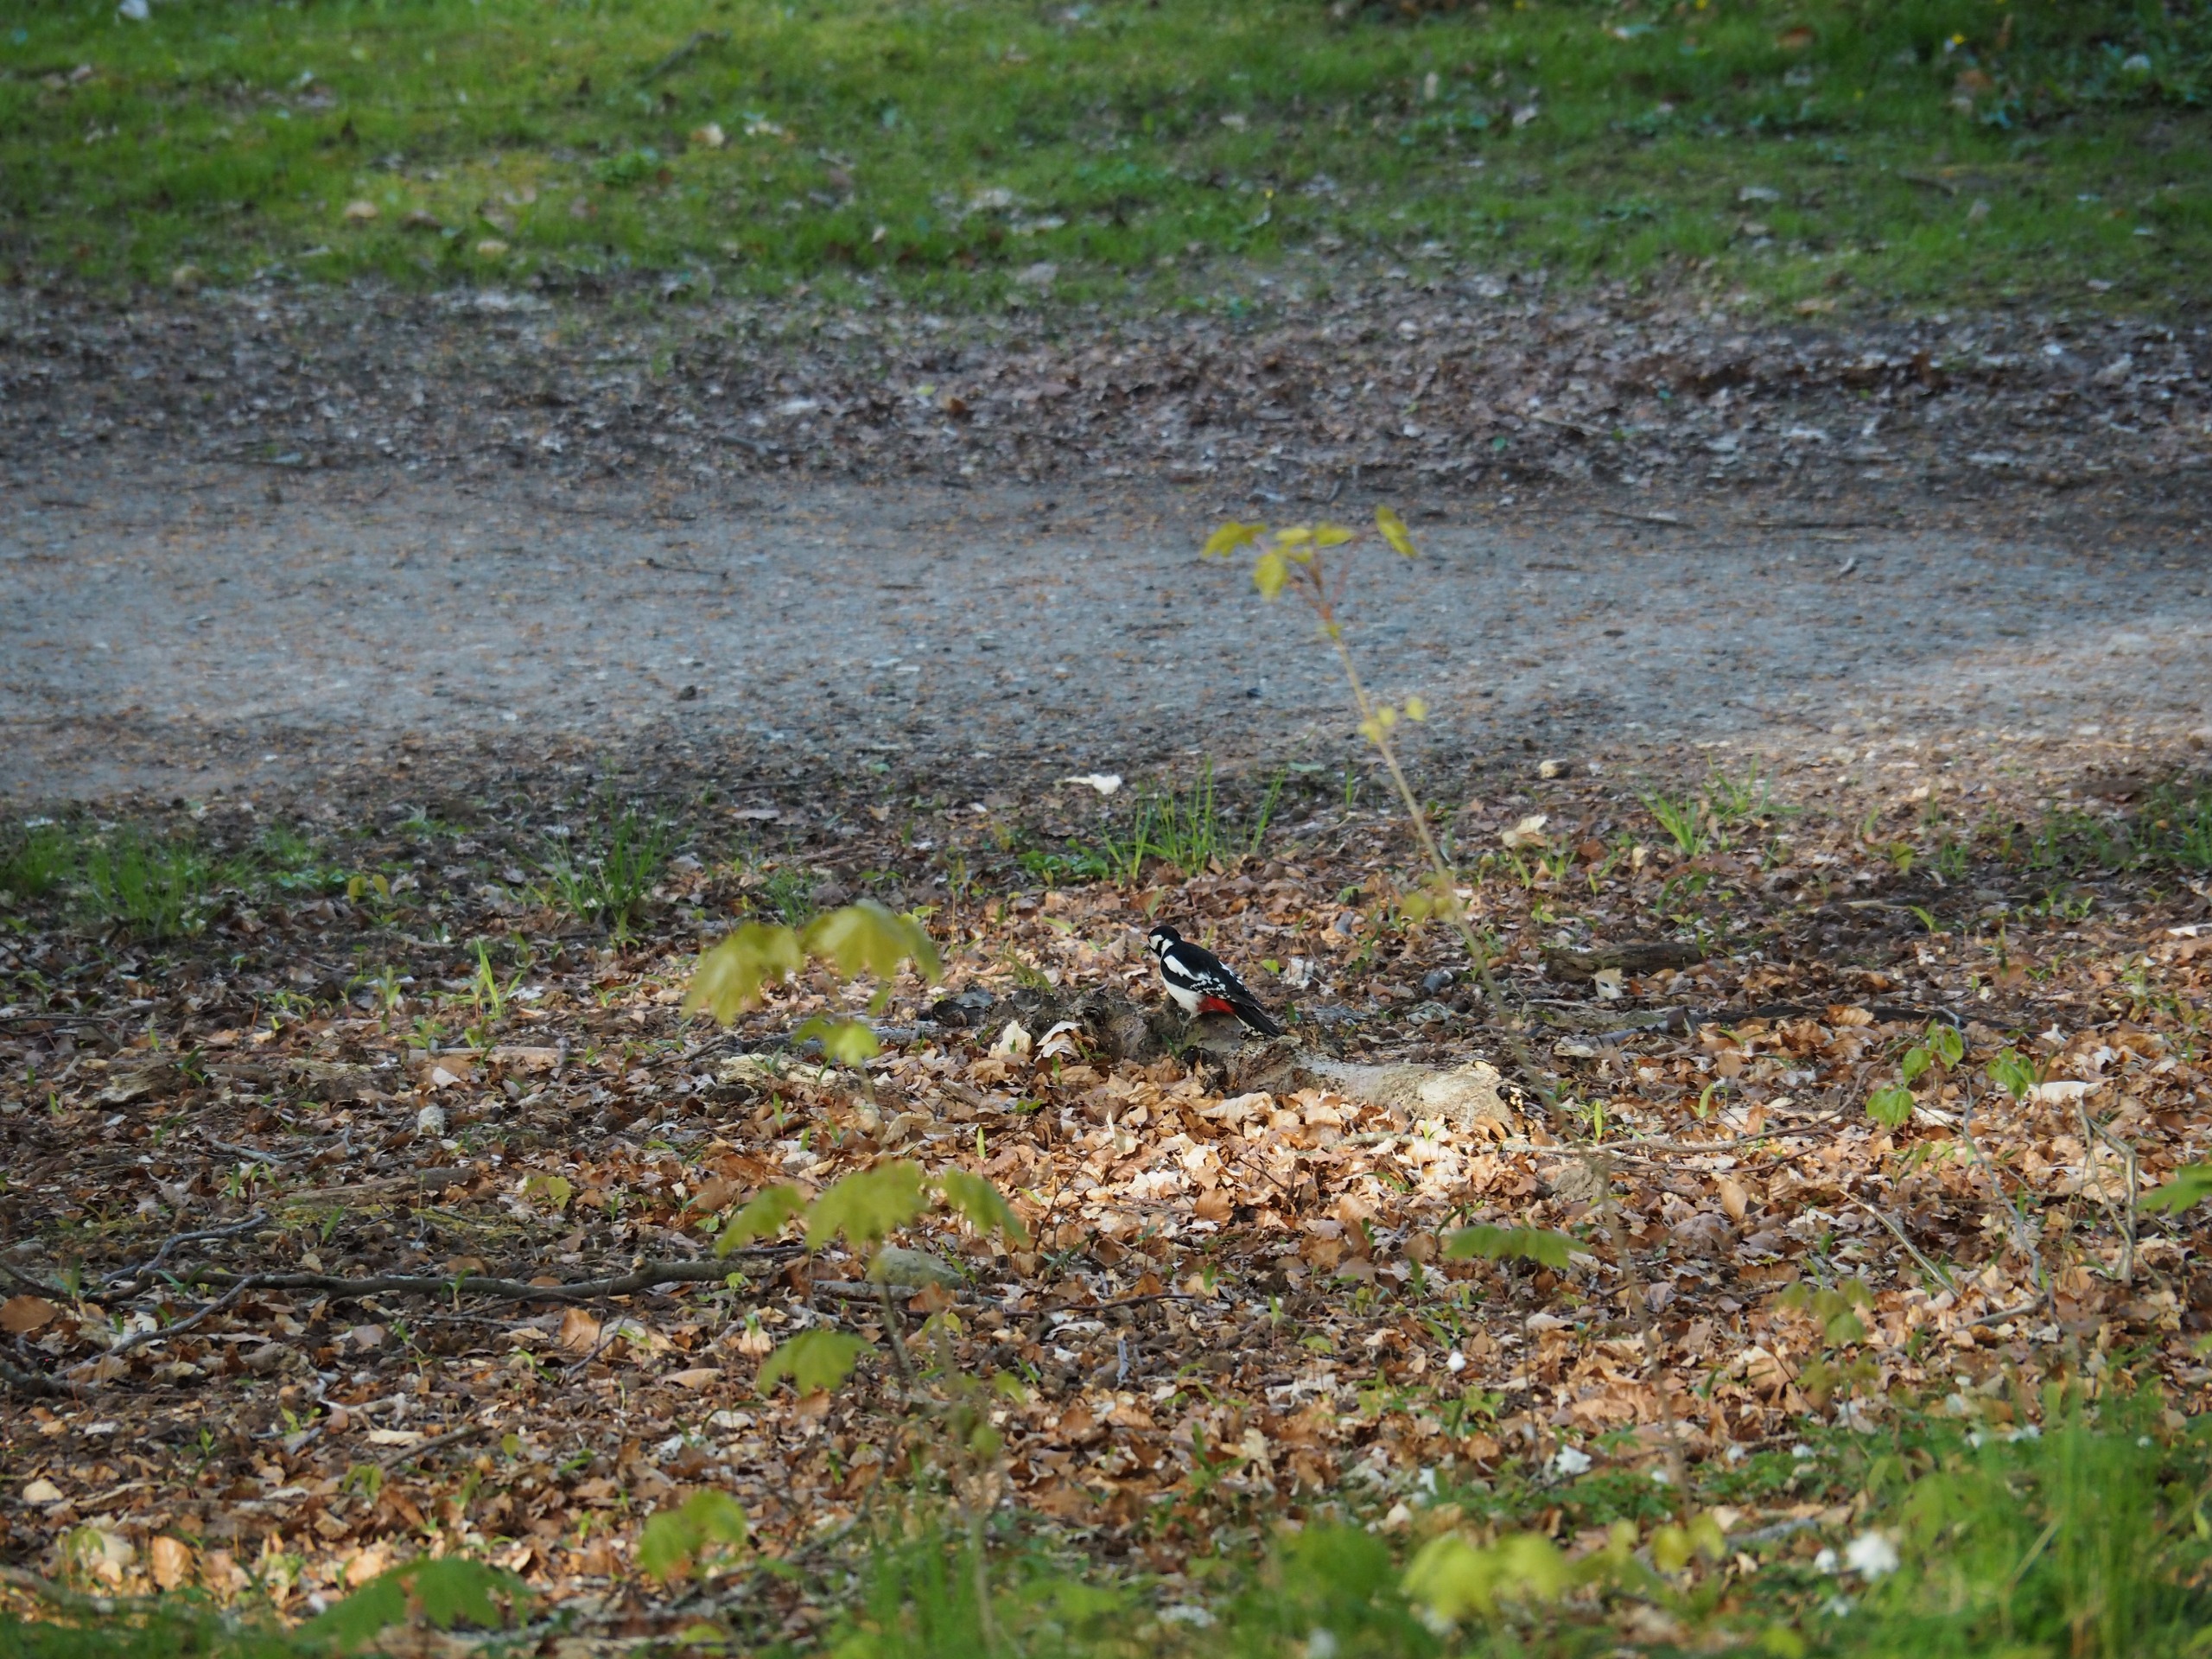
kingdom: Animalia
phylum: Chordata
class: Aves
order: Piciformes
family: Picidae
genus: Dendrocopos
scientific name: Dendrocopos major
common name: Stor flagspætte
